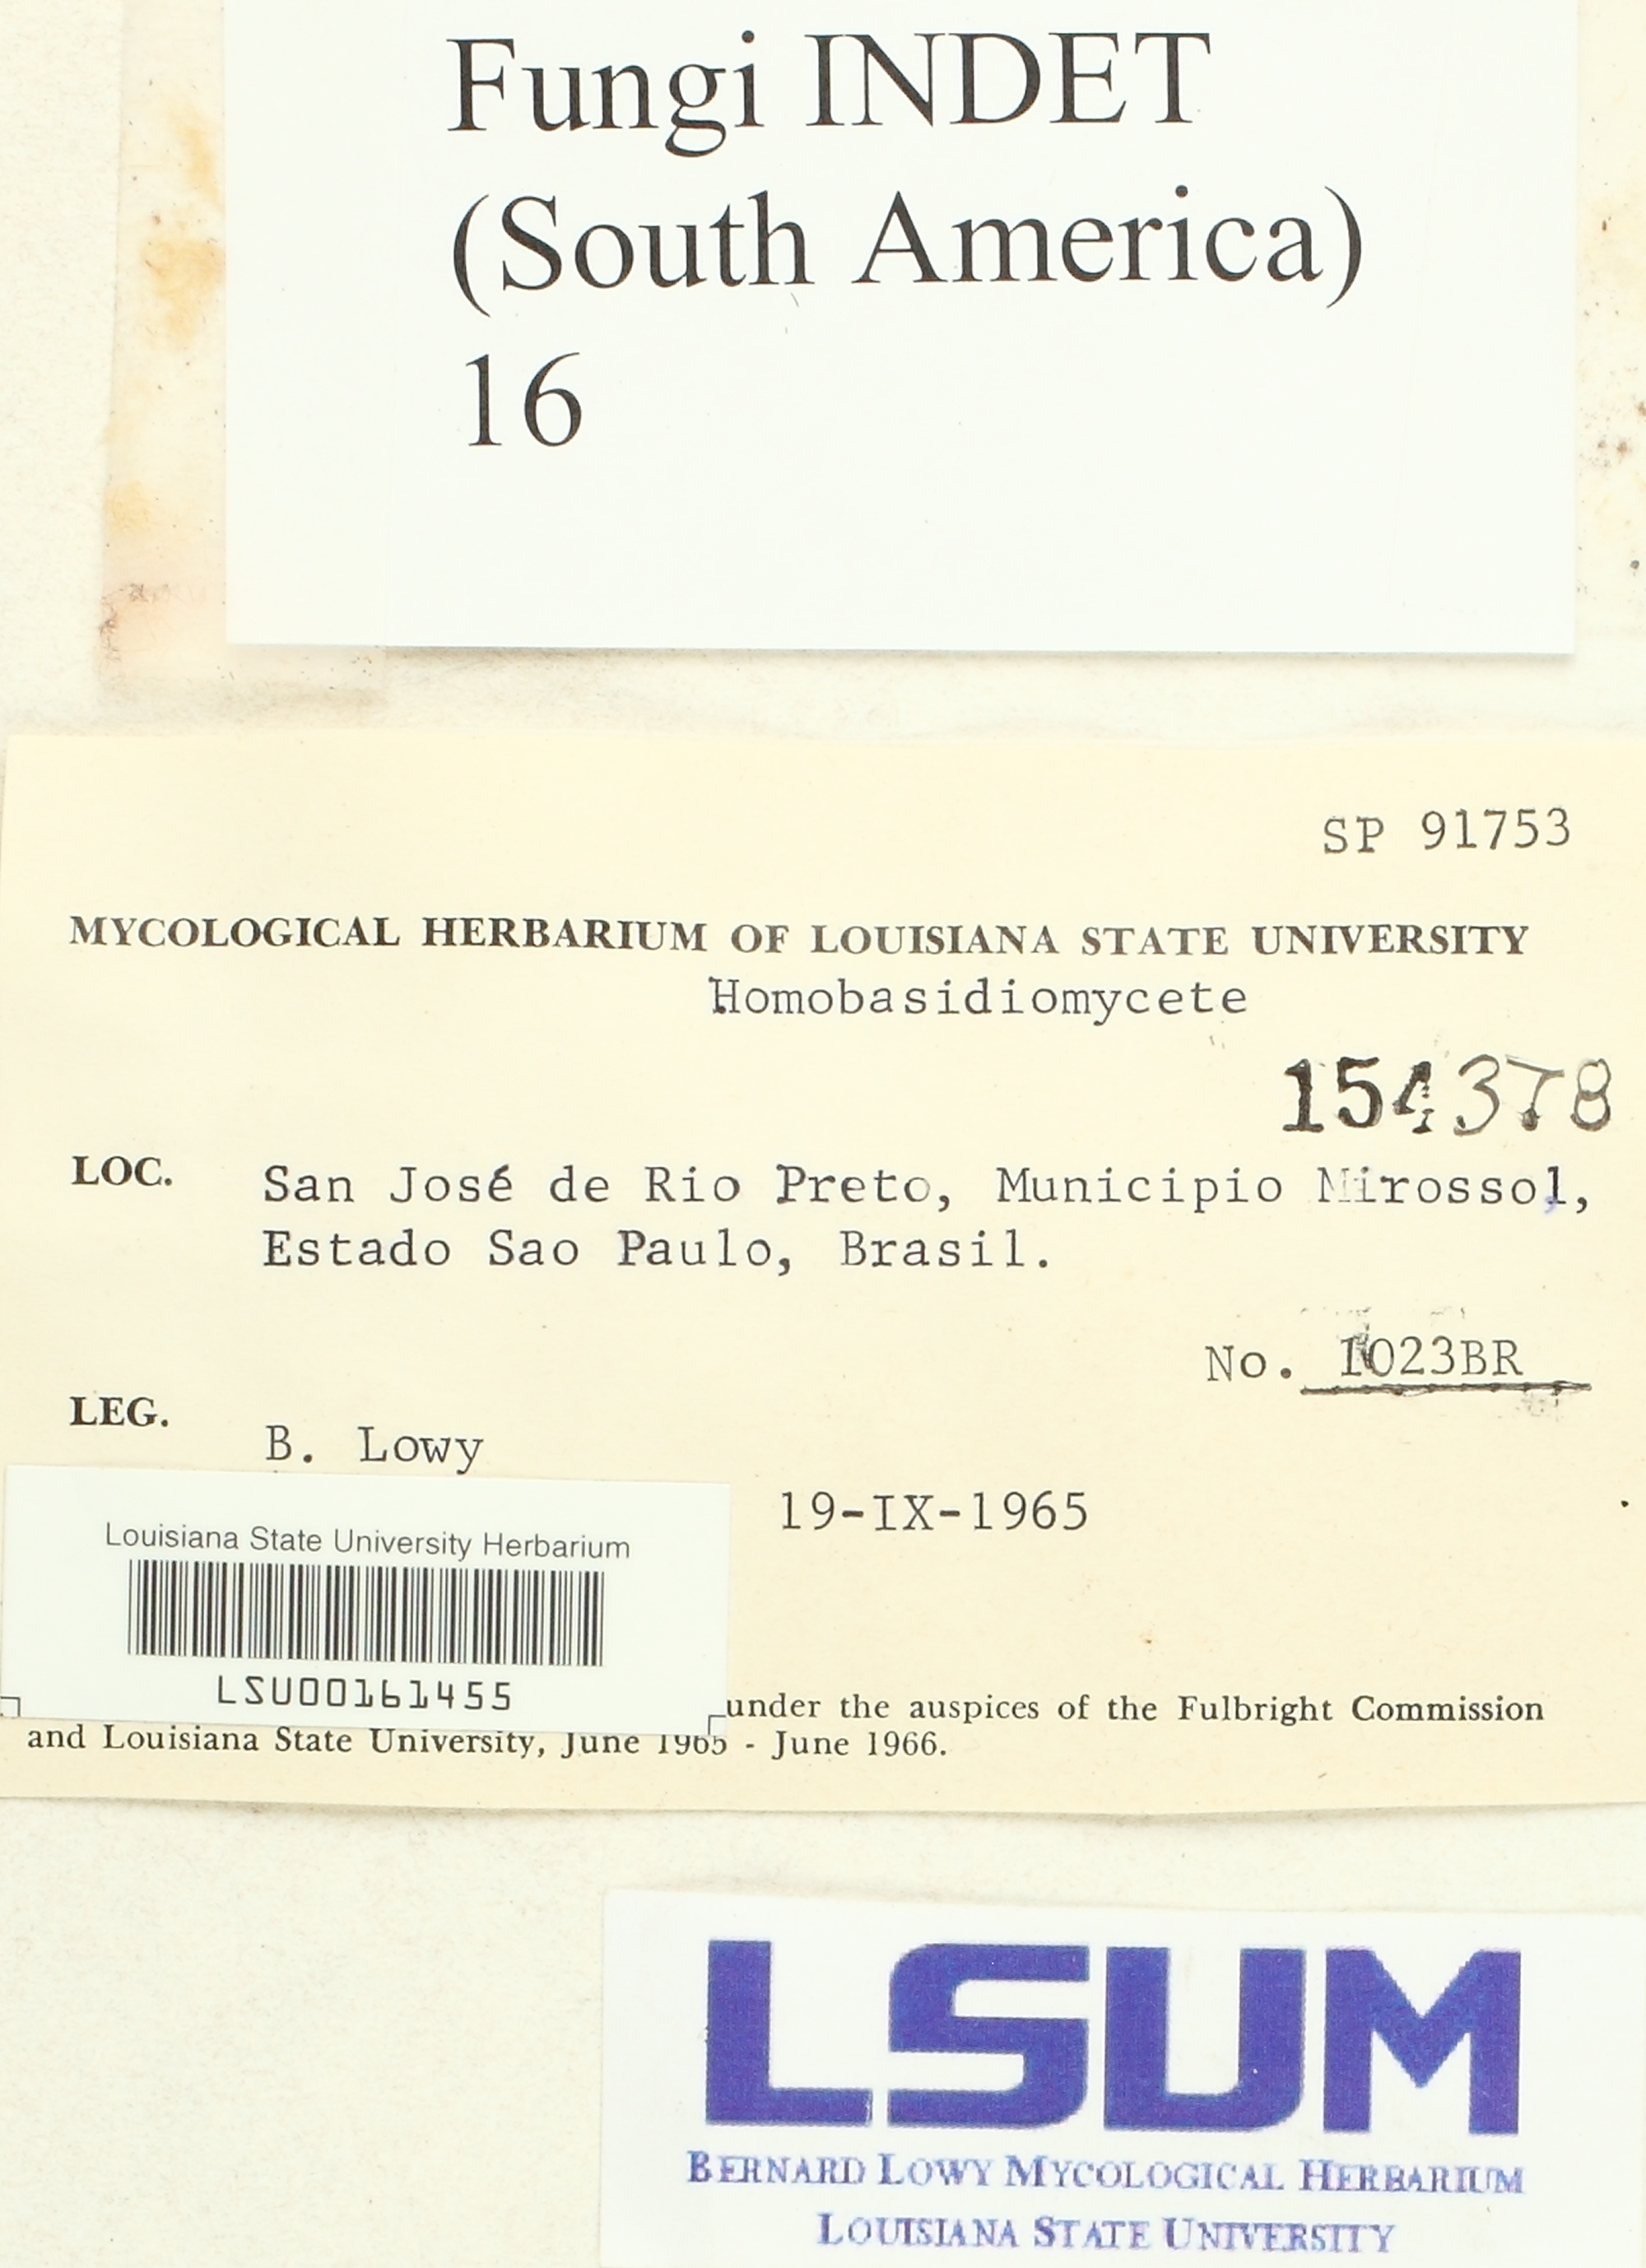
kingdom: Fungi
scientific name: Fungi
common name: Fungi
